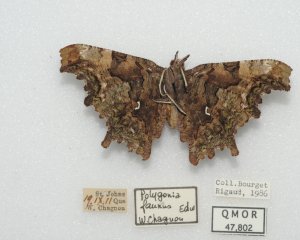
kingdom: Animalia
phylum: Arthropoda
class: Insecta
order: Lepidoptera
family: Nymphalidae
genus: Polygonia
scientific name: Polygonia faunus
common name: Green Comma
